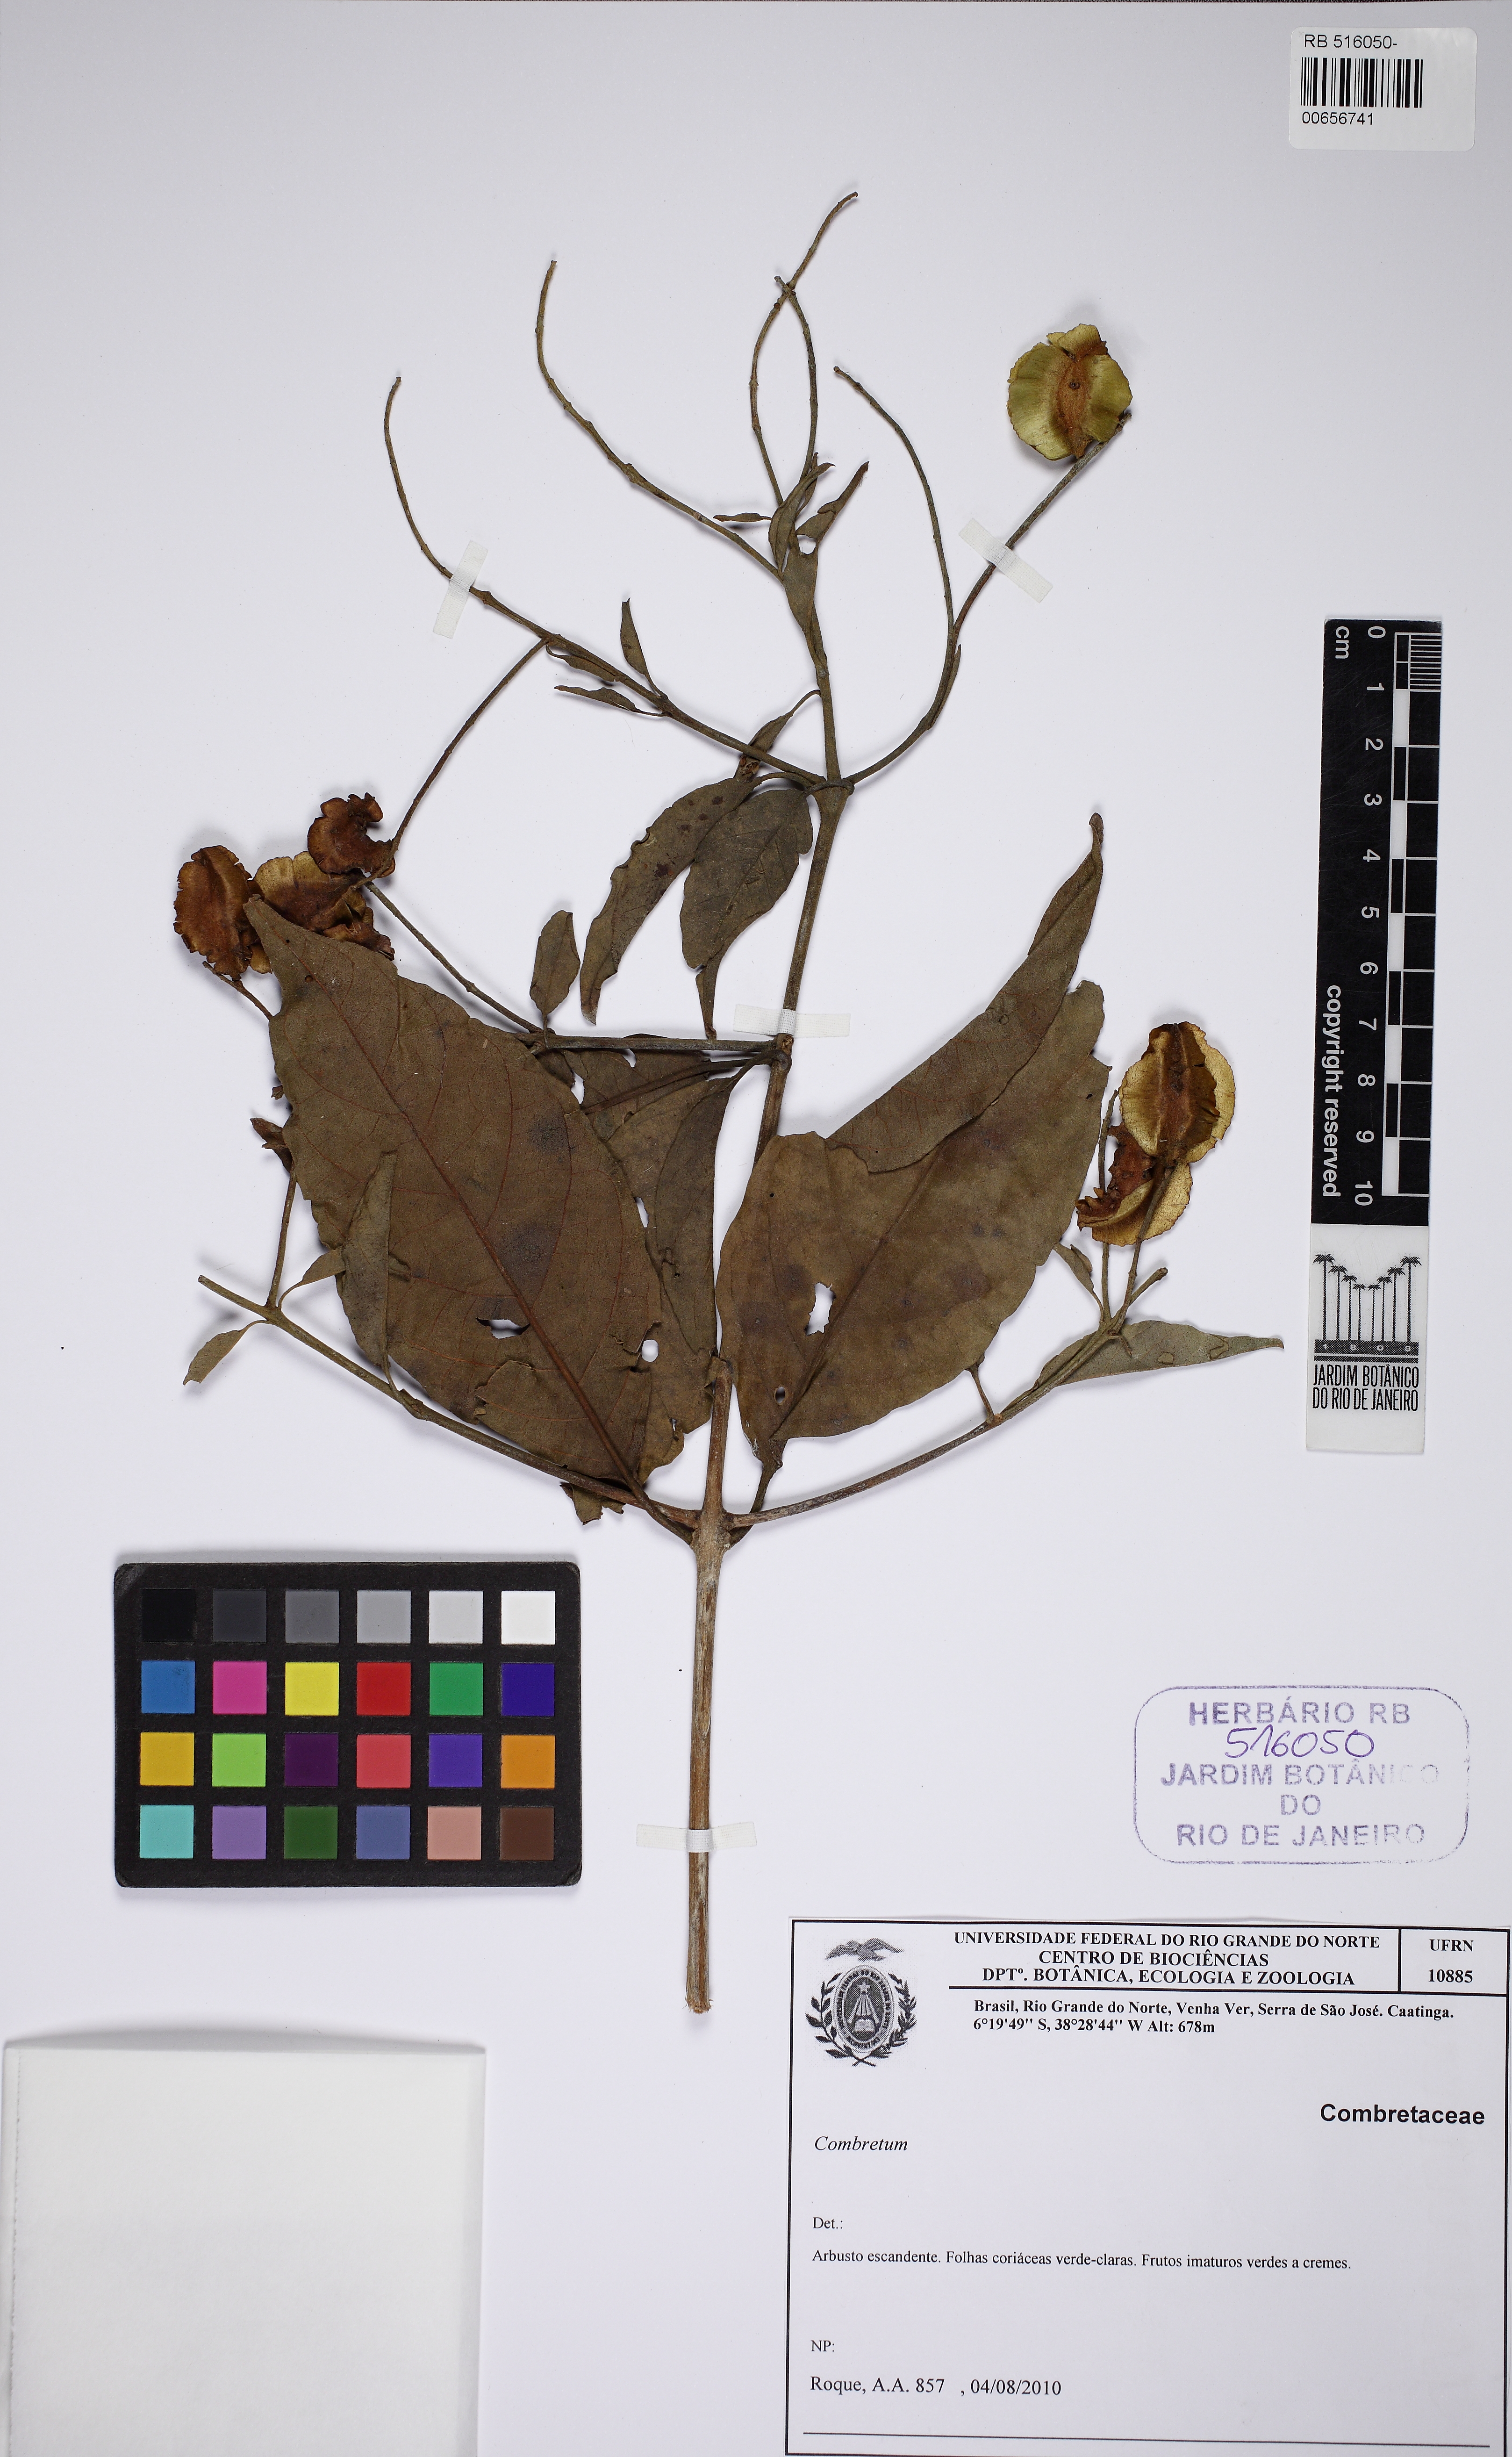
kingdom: Plantae
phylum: Tracheophyta
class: Magnoliopsida
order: Myrtales
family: Combretaceae
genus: Combretum
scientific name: Combretum
